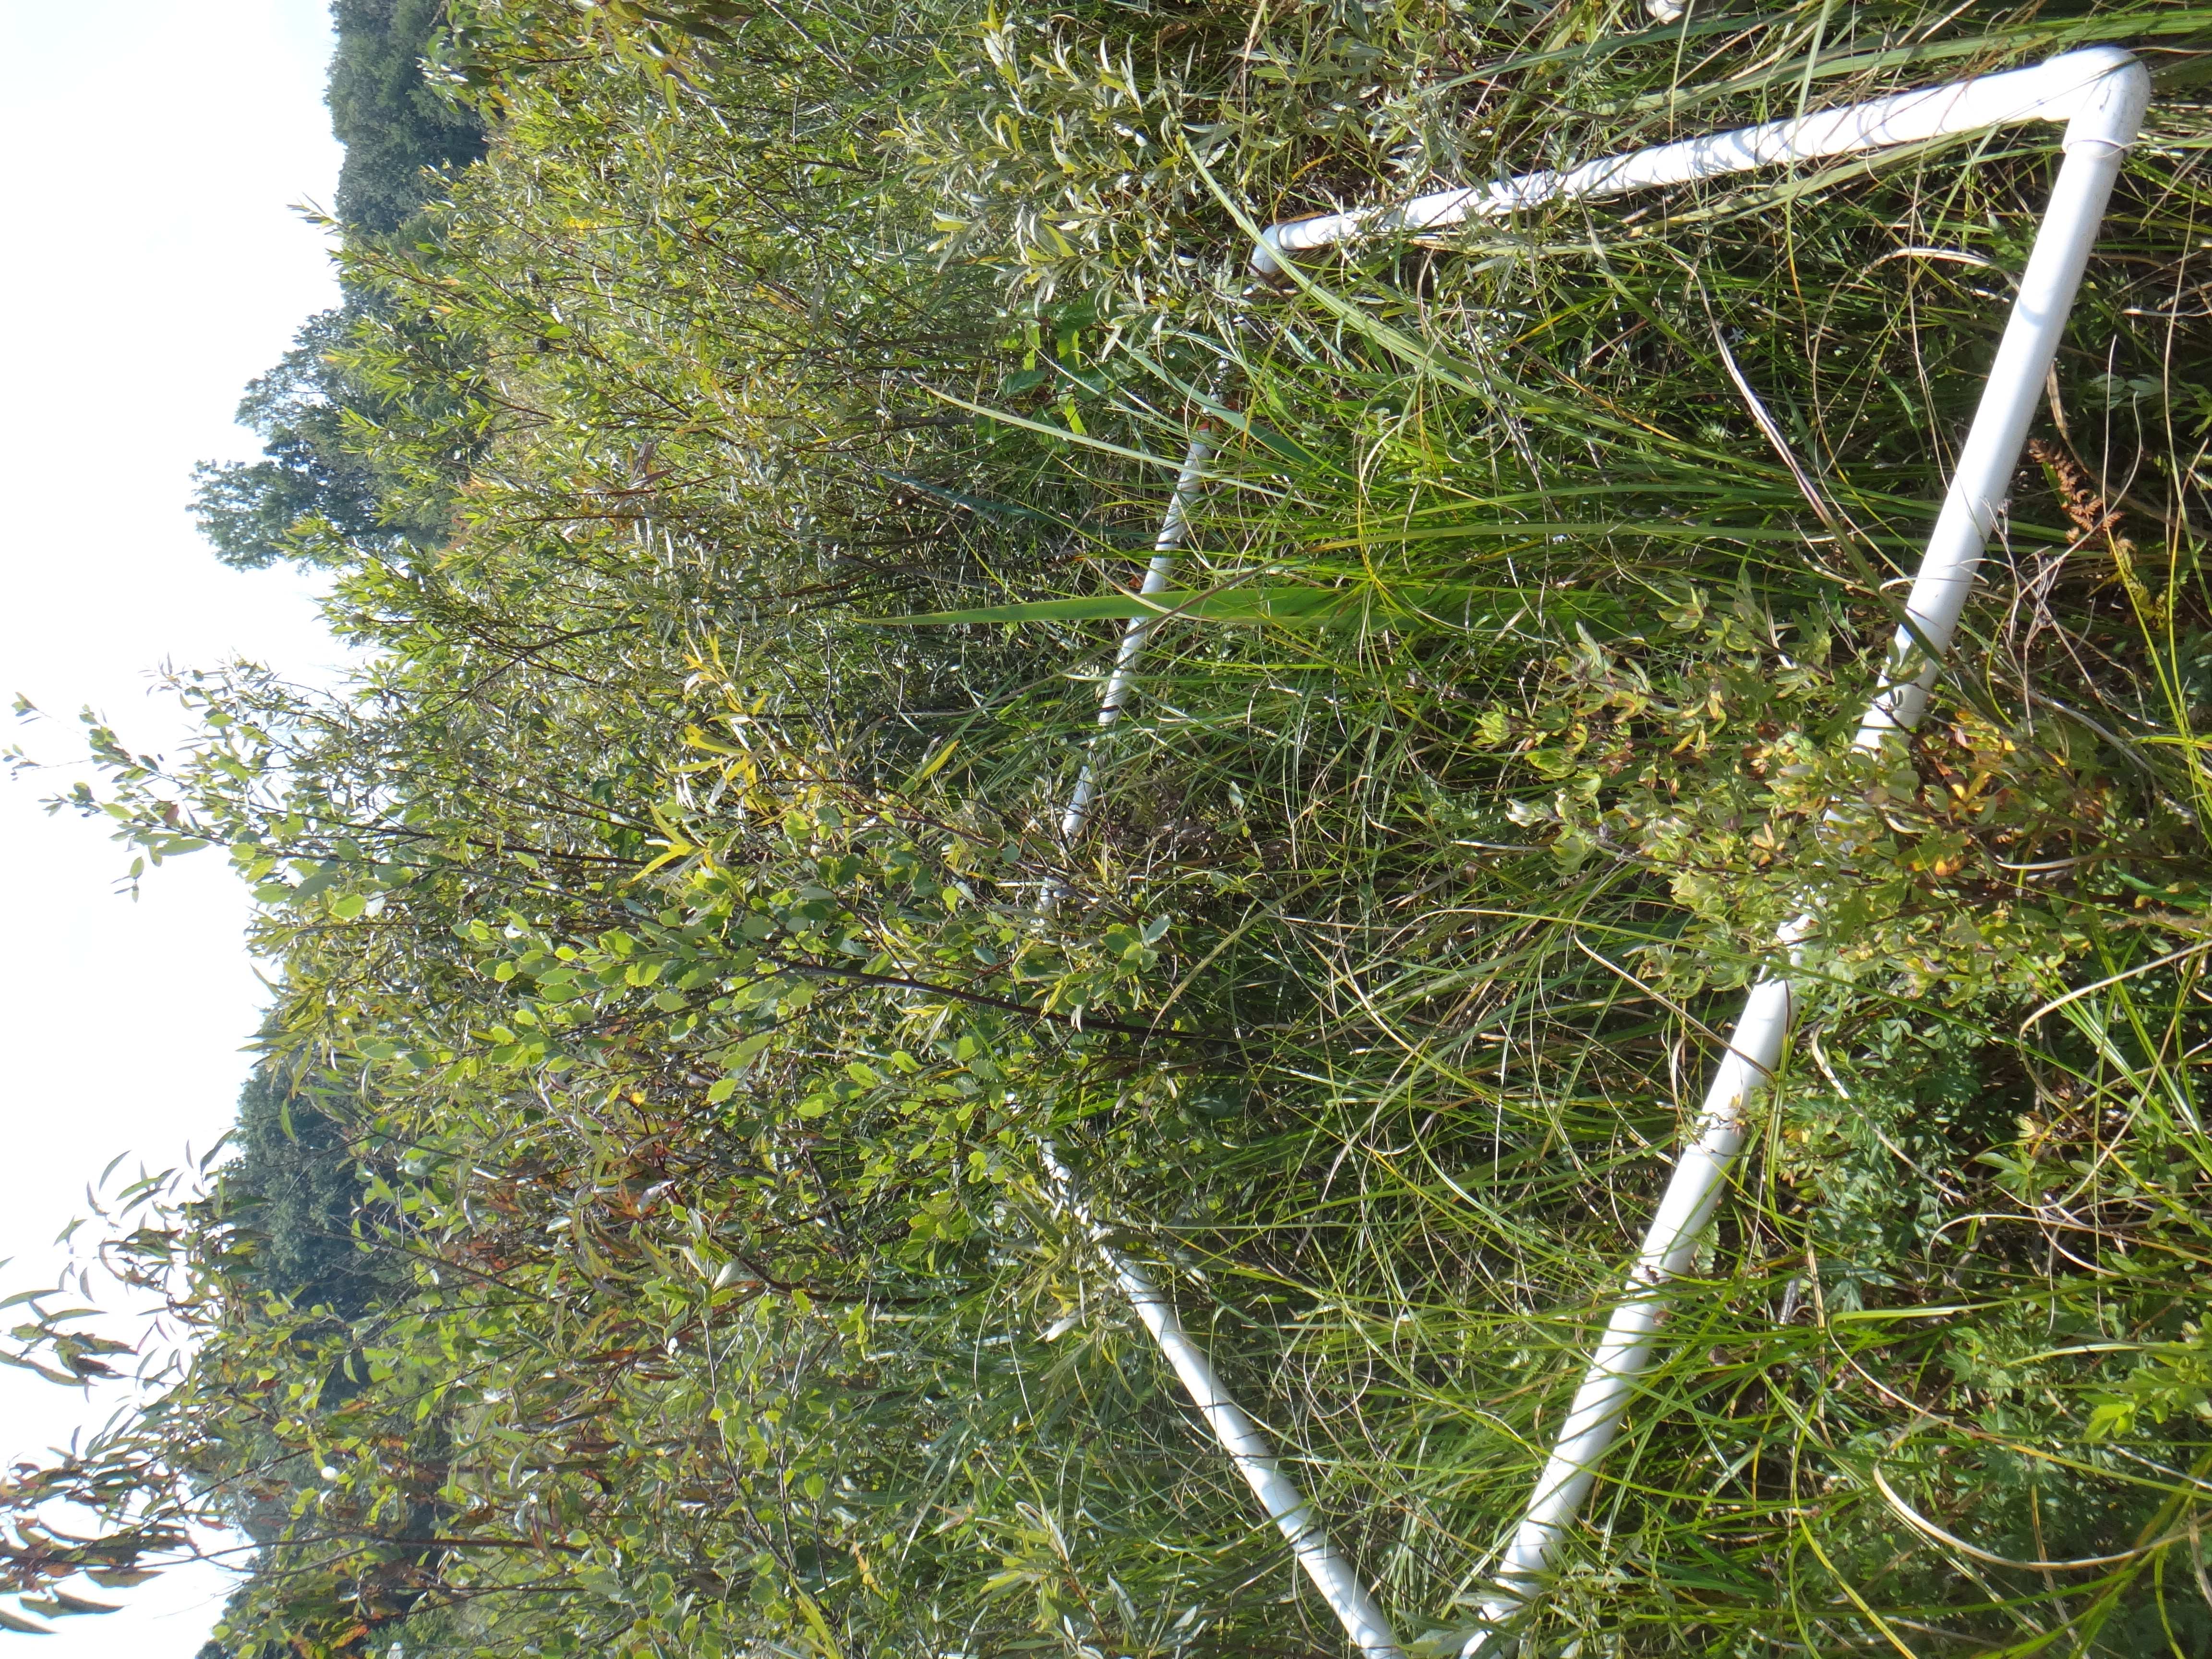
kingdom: Plantae
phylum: Tracheophyta
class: Magnoliopsida
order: Asterales
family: Asteraceae
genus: Symphyotrichum
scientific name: Symphyotrichum lanceolatum
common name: Panicled aster
